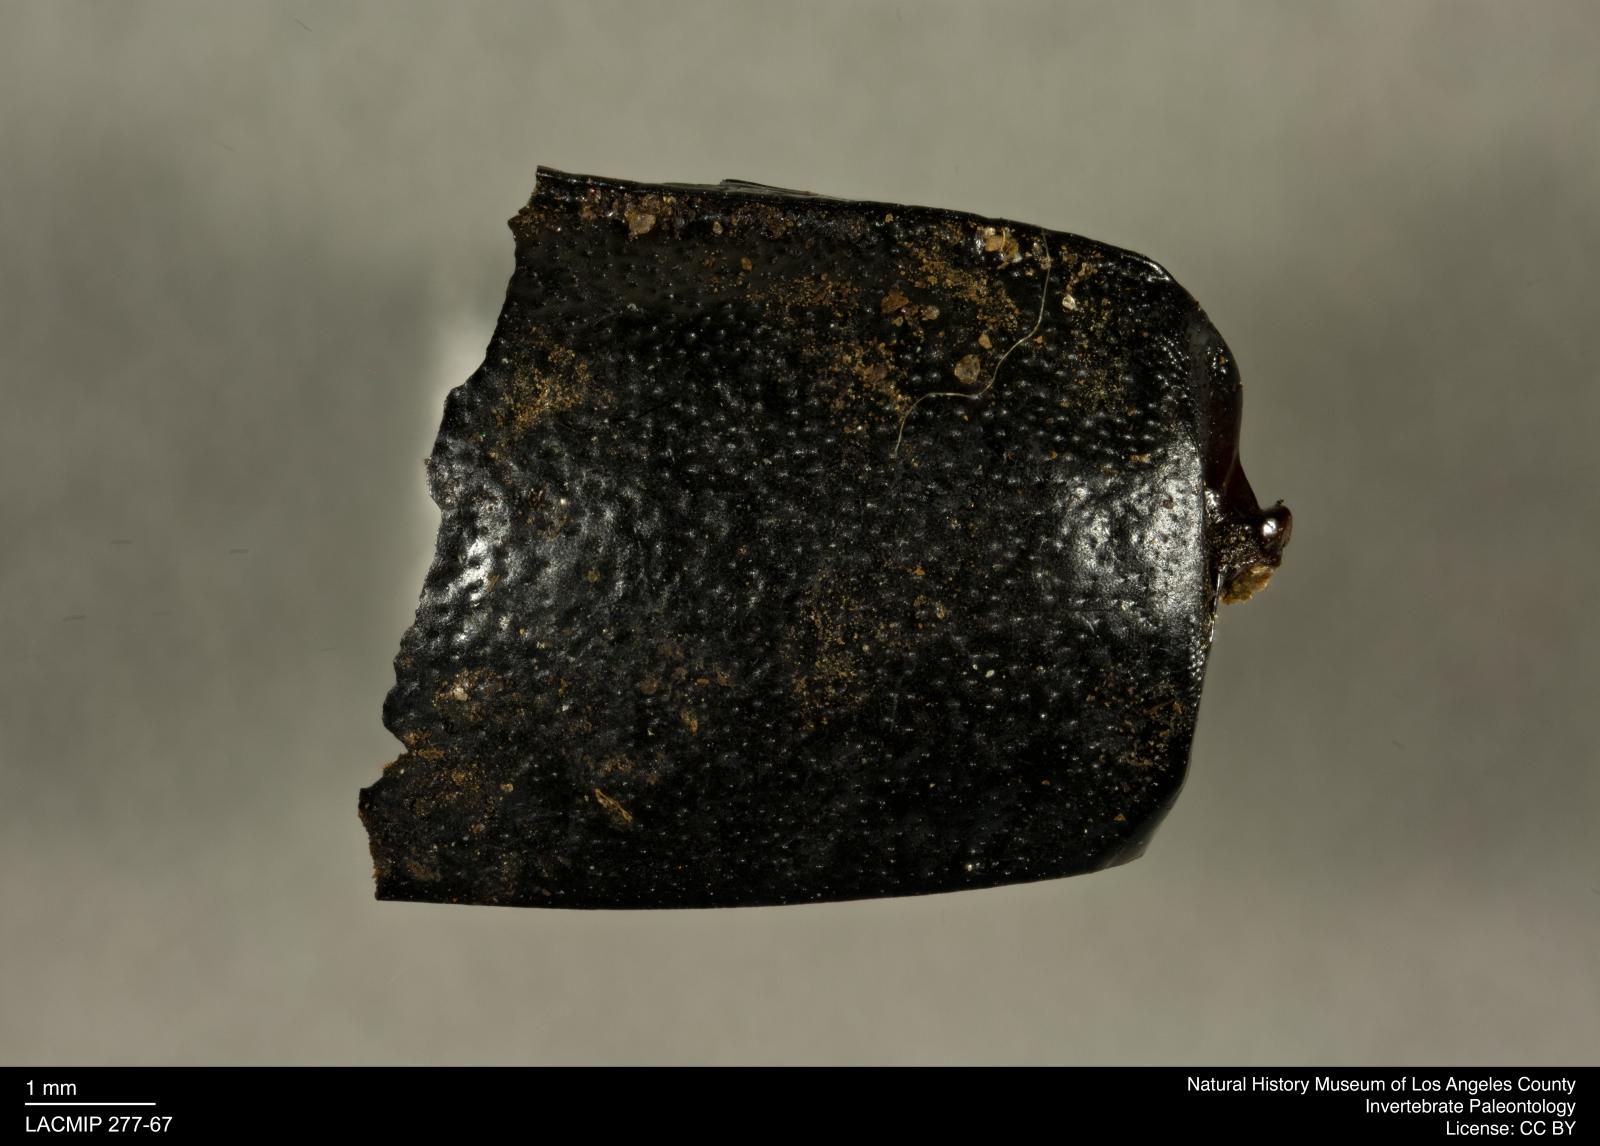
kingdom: Animalia
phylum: Arthropoda
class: Insecta
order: Coleoptera
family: Tenebrionidae
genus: Coniontis
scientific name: Coniontis abdominalis
